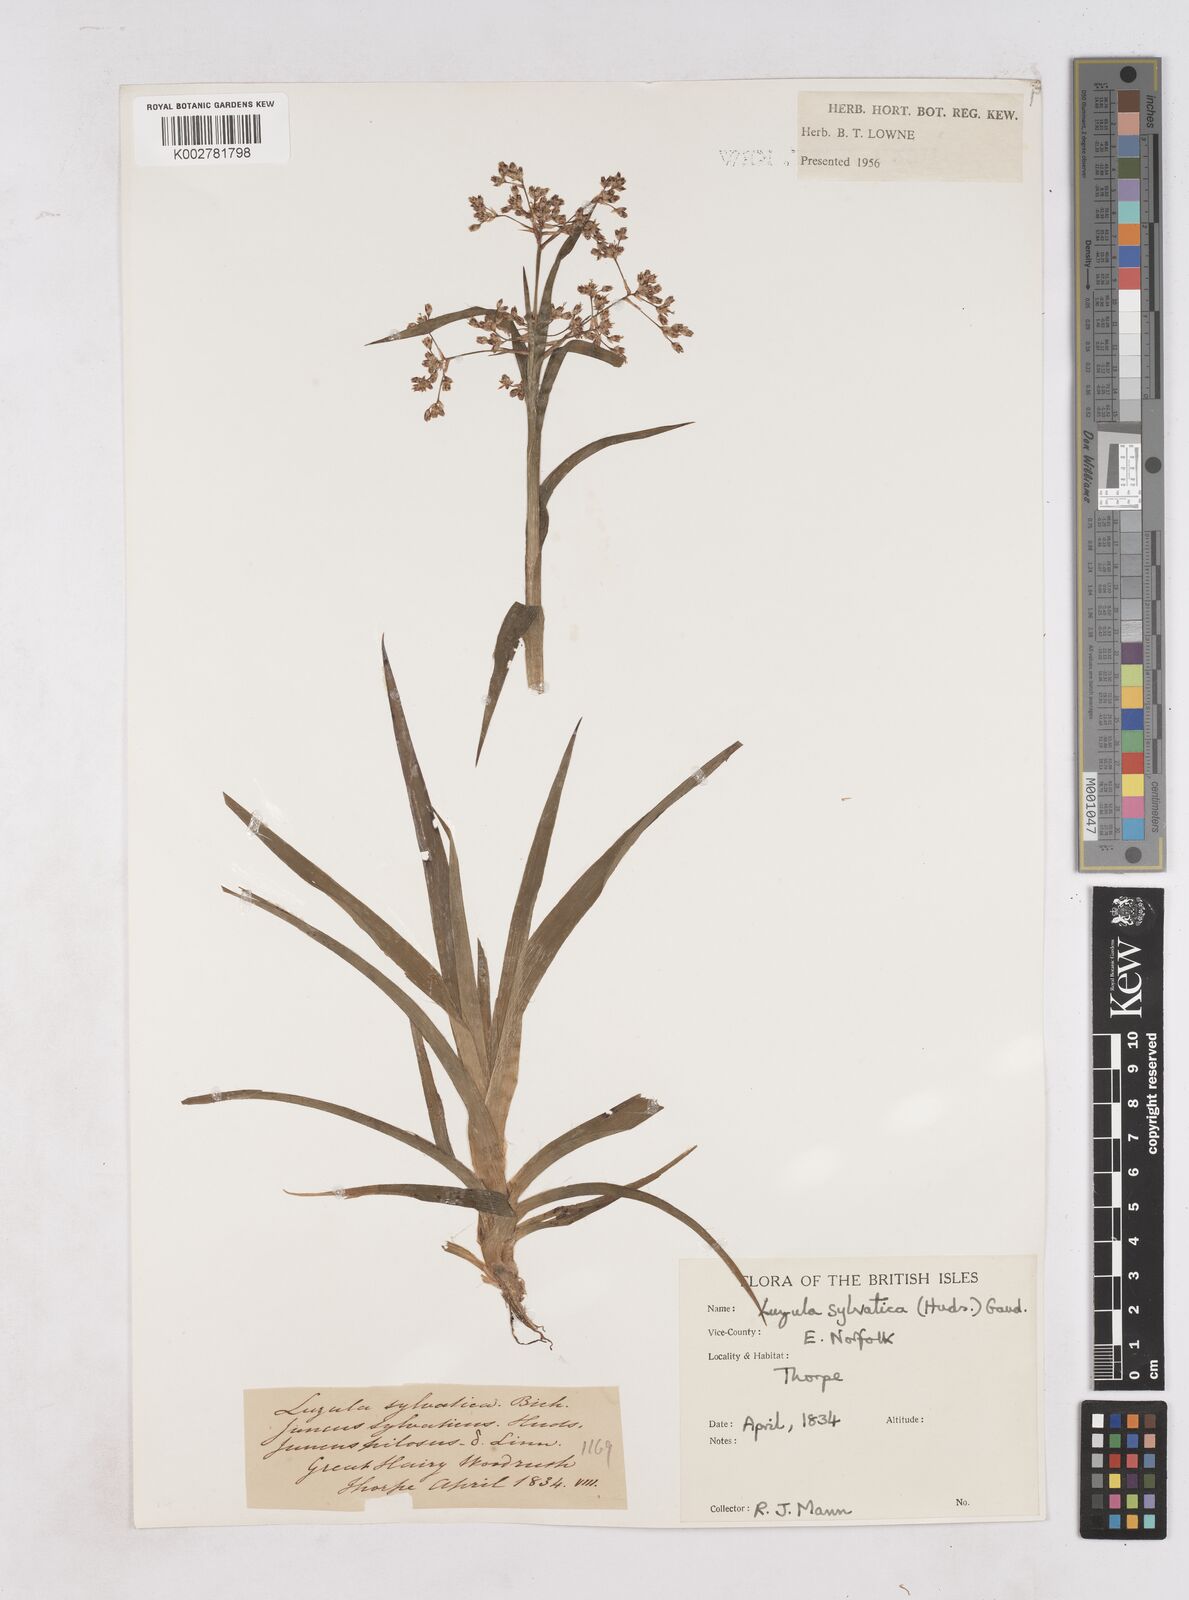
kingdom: Plantae
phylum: Tracheophyta
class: Liliopsida
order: Poales
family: Juncaceae
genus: Luzula
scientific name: Luzula sylvatica
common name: Great wood-rush
